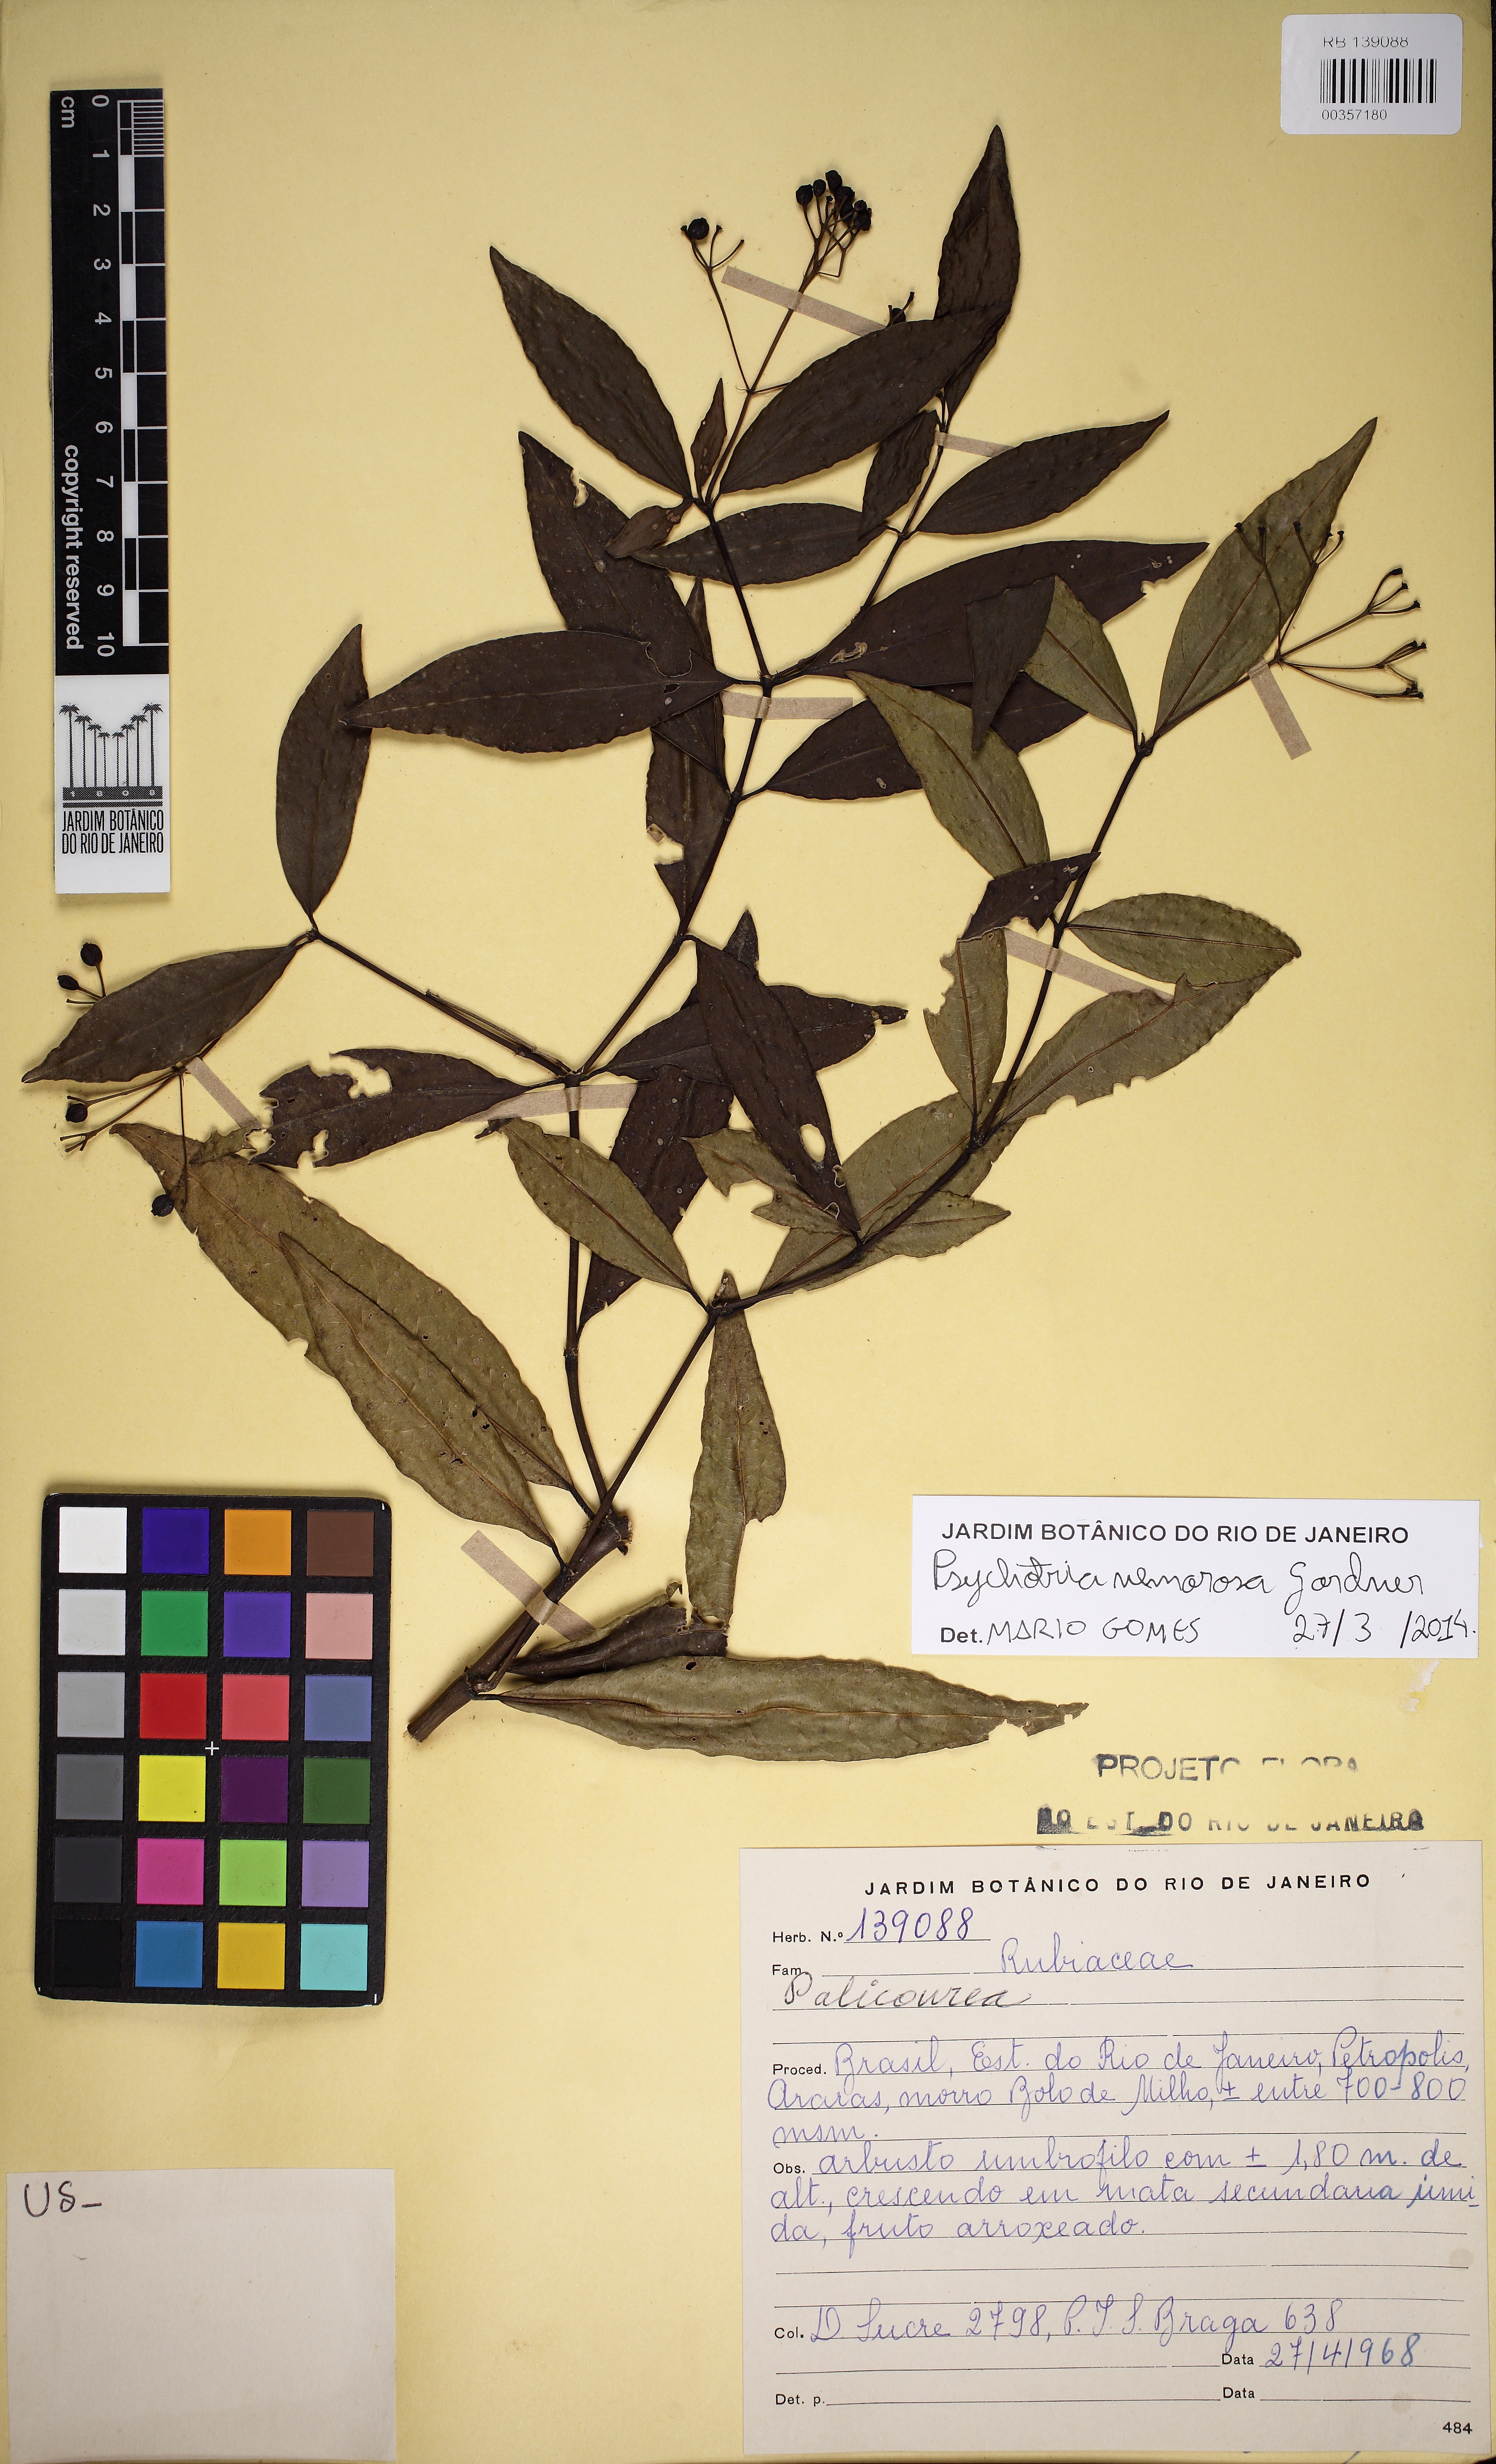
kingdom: Plantae
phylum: Tracheophyta
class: Magnoliopsida
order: Gentianales
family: Rubiaceae
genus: Psychotria
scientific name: Psychotria nemorosa
